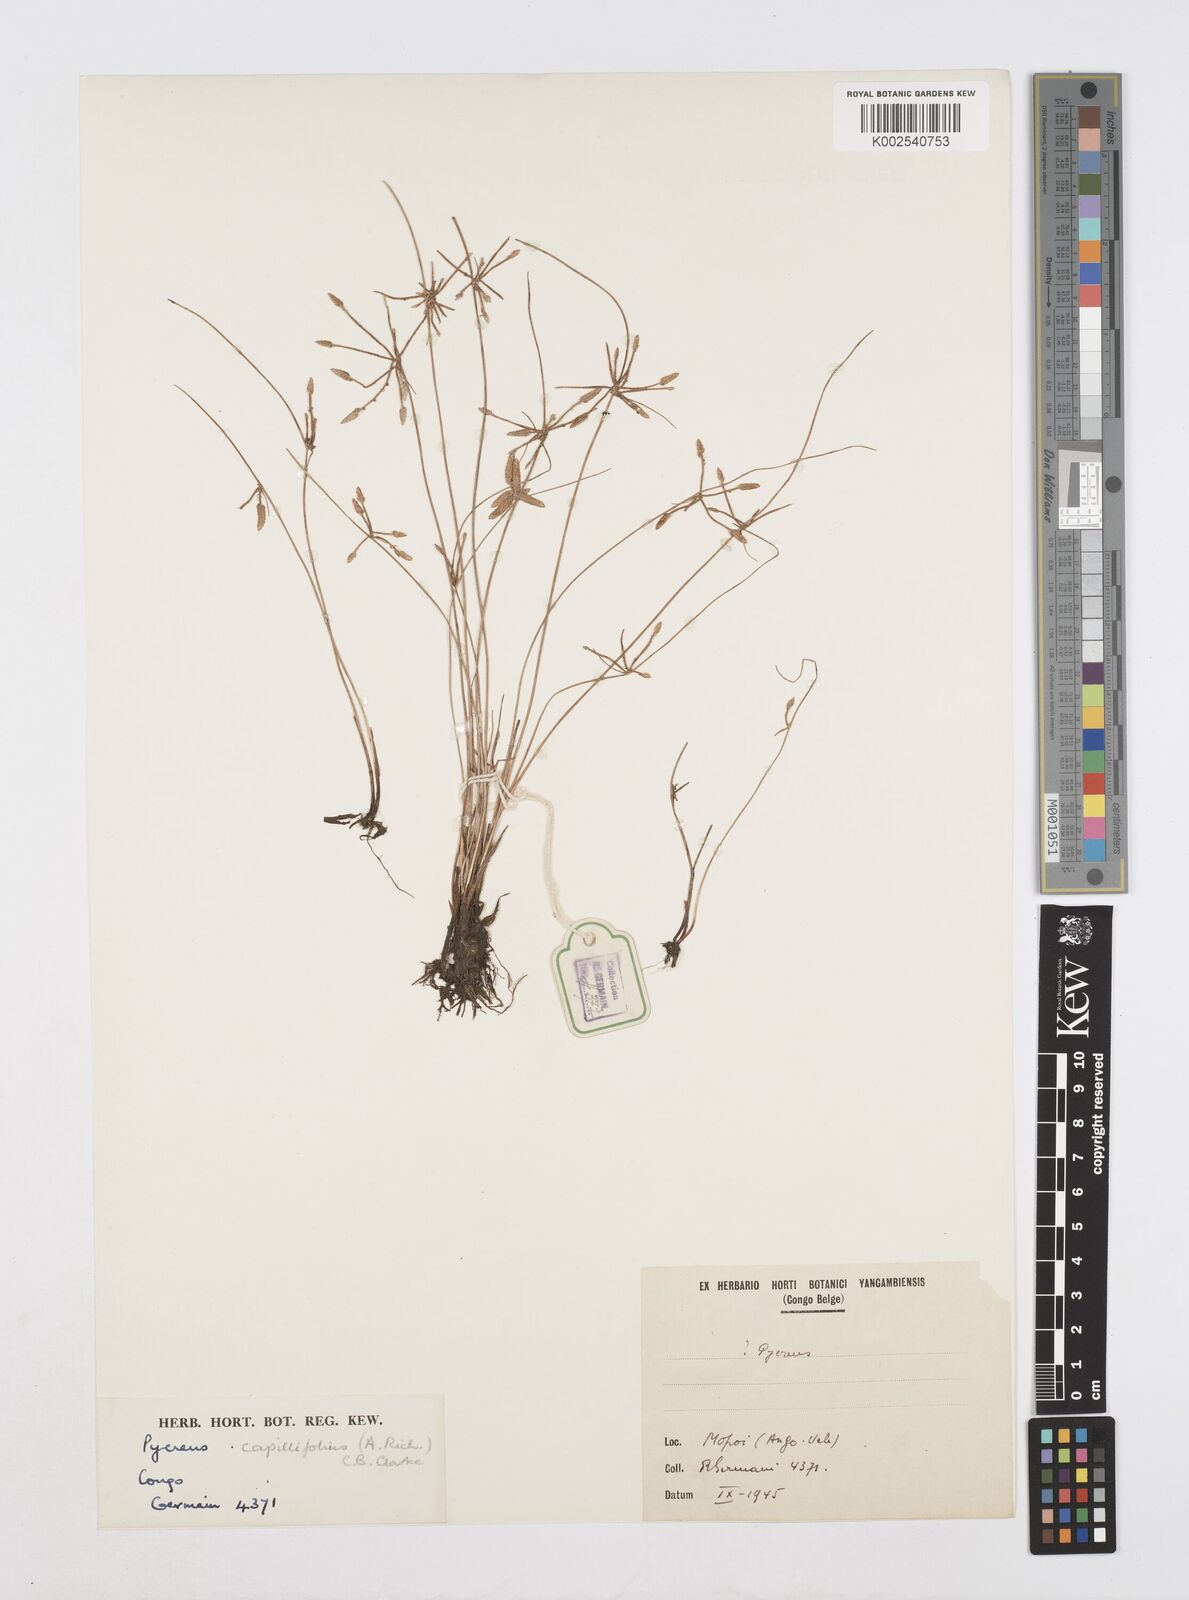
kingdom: Plantae
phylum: Tracheophyta
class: Liliopsida
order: Poales
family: Cyperaceae
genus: Cyperus
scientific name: Cyperus capillifolius
